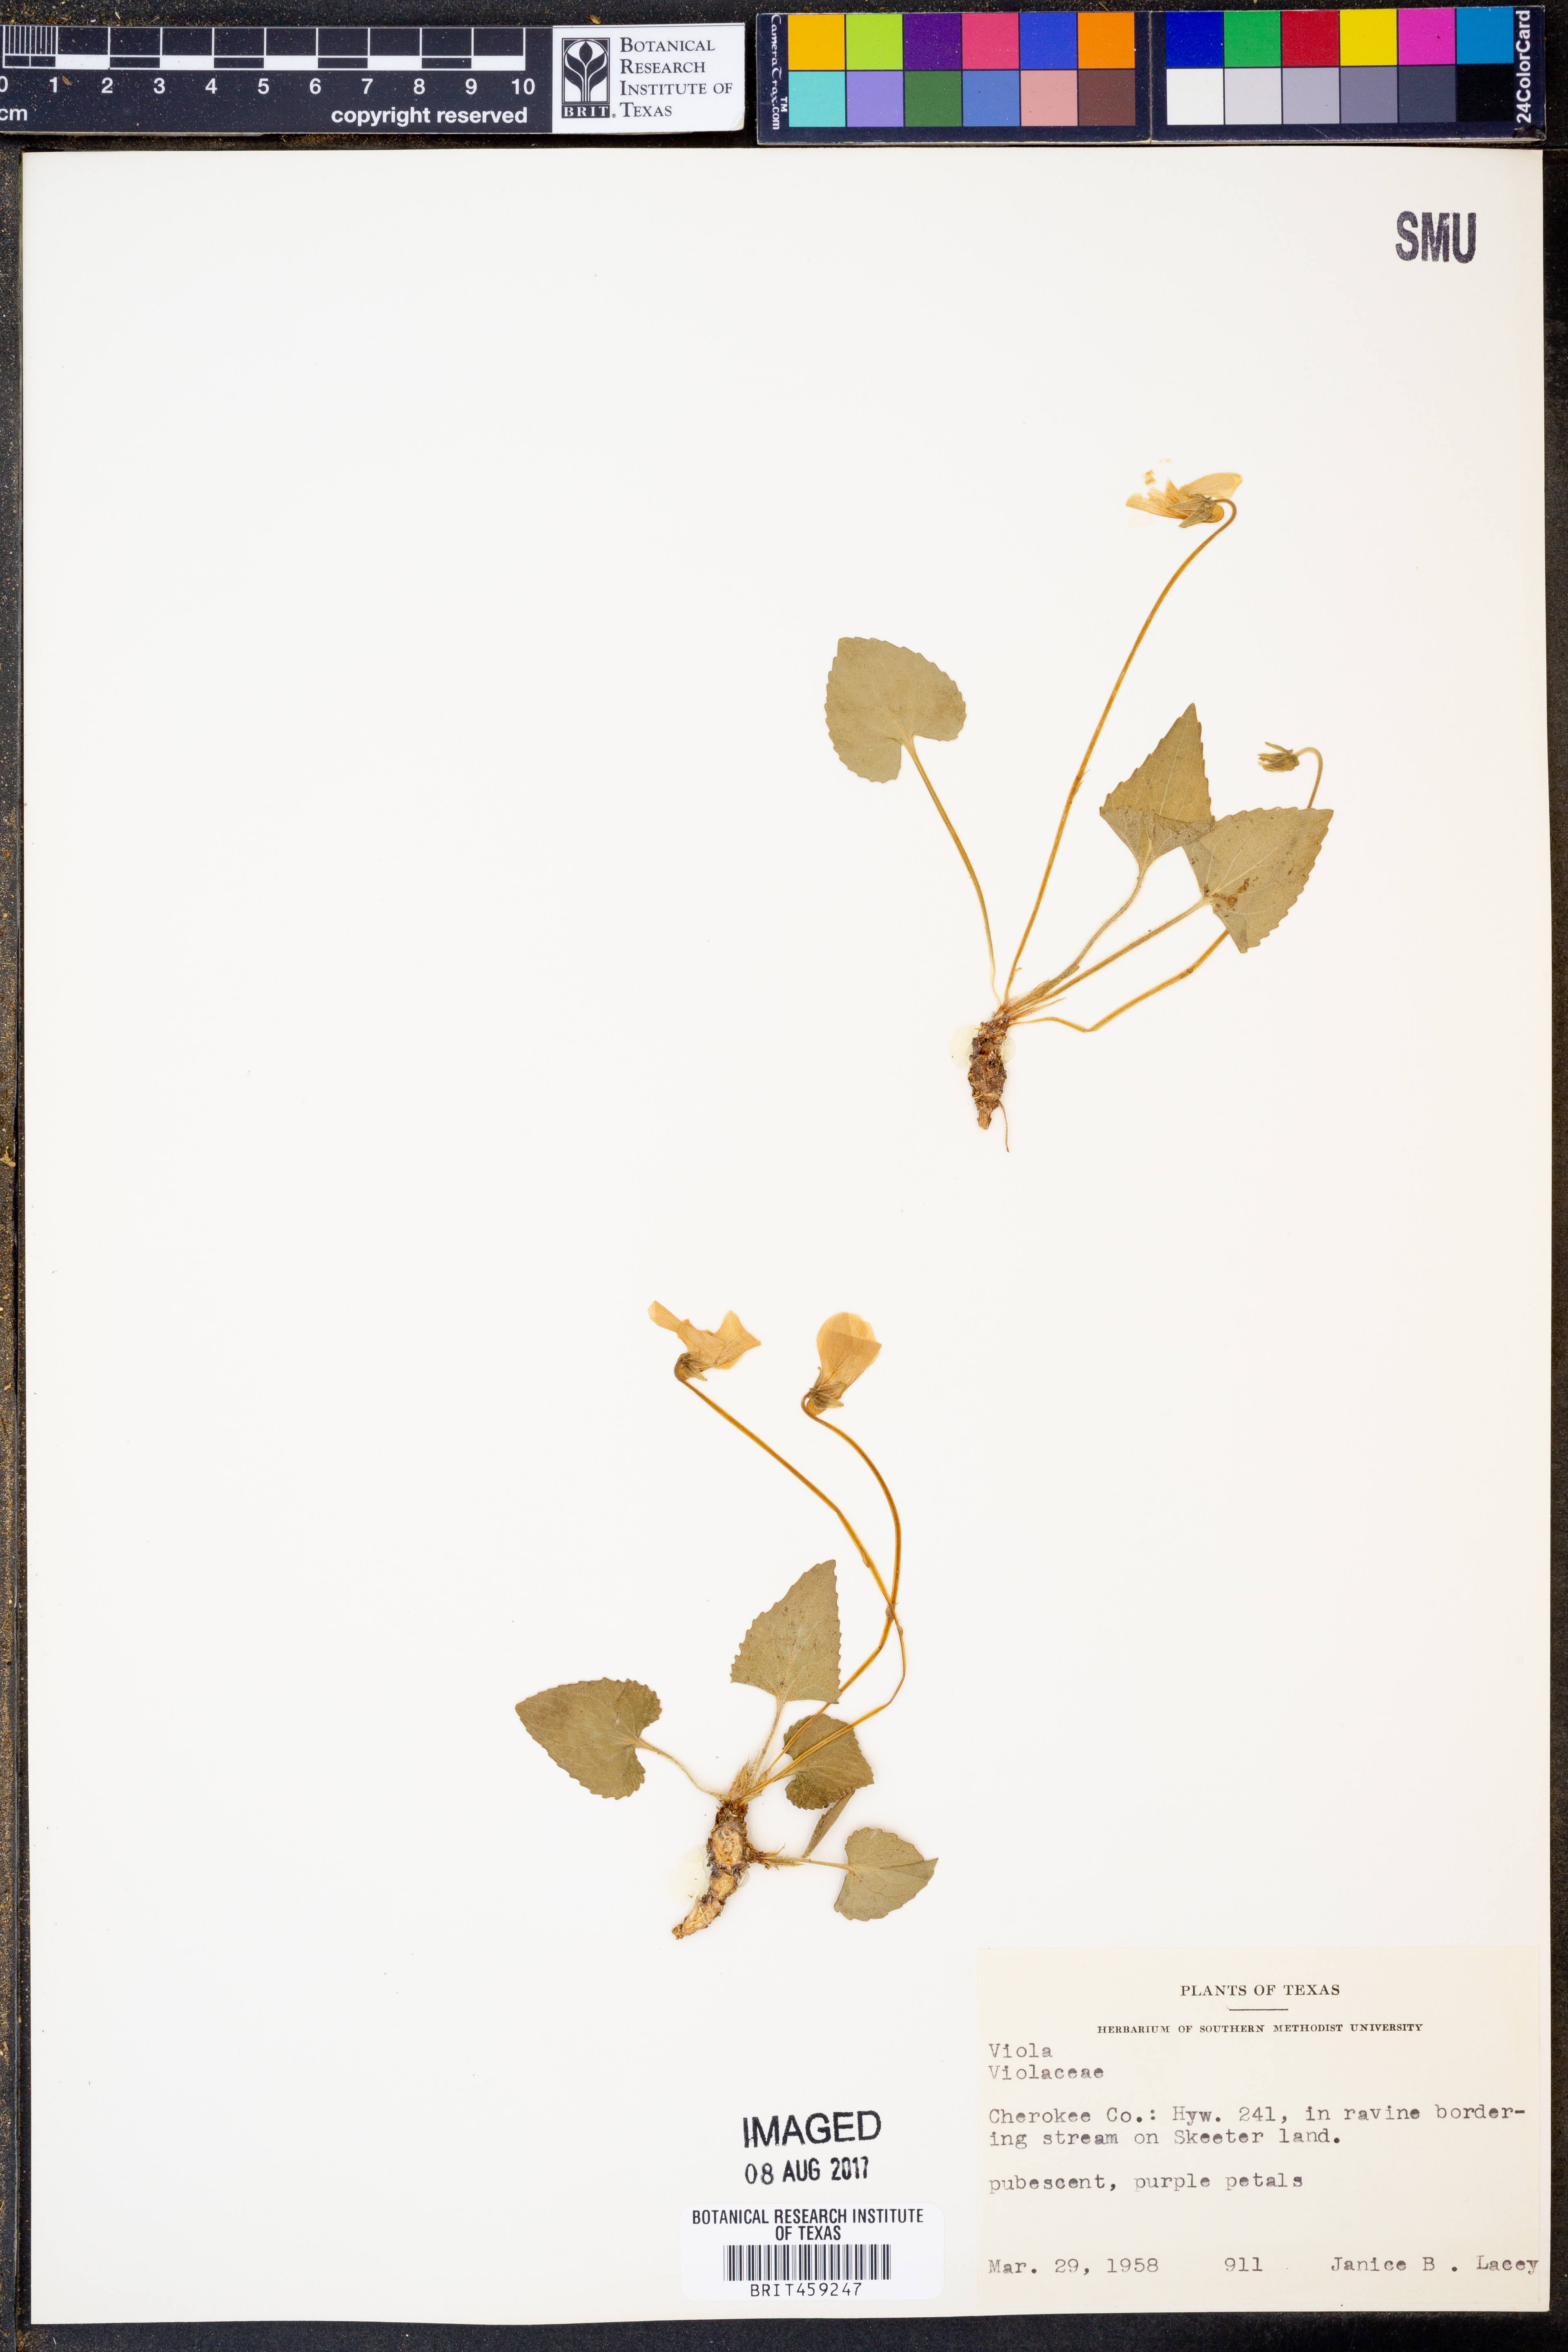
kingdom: Plantae
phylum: Tracheophyta
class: Magnoliopsida
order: Malpighiales
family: Violaceae
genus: Viola
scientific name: Viola
